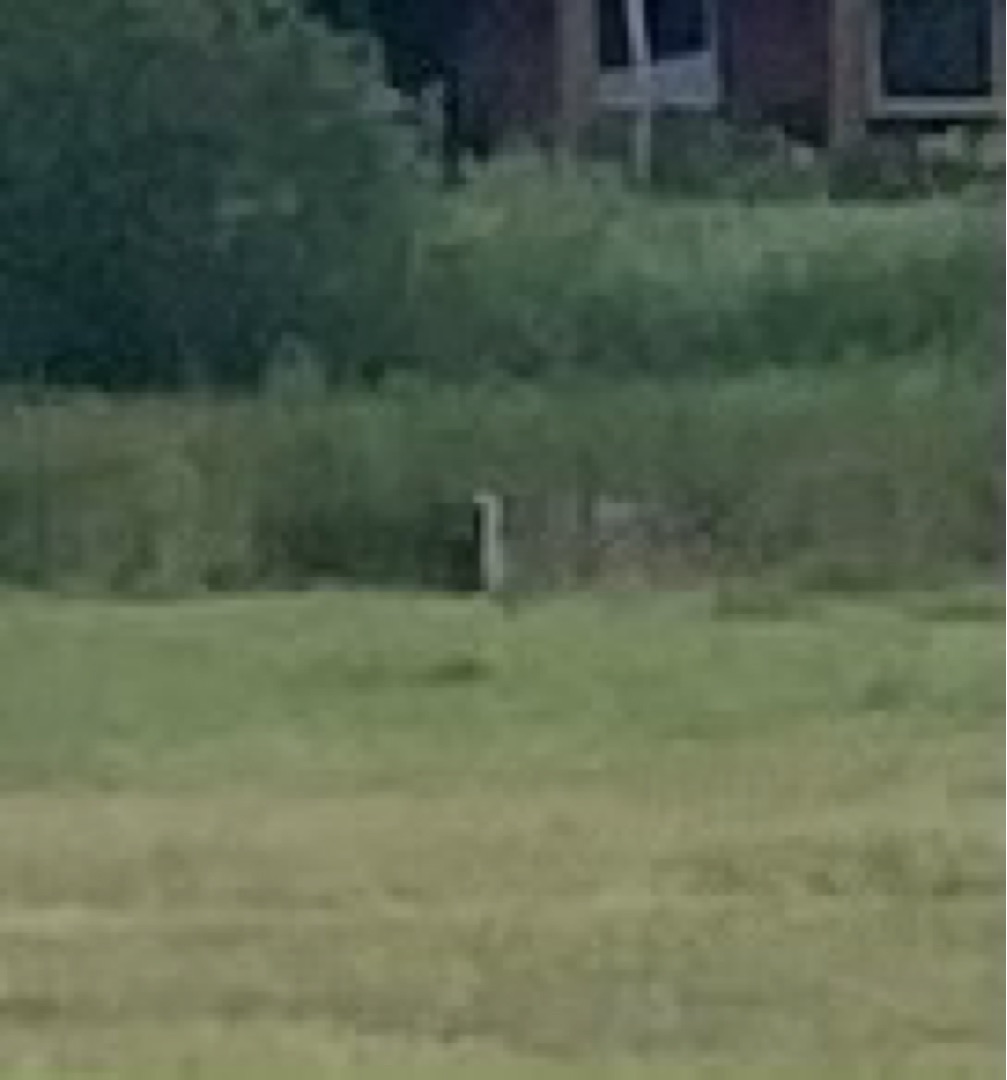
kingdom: Animalia
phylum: Chordata
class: Aves
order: Pelecaniformes
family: Ardeidae
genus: Ardea
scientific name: Ardea cinerea
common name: Fiskehejre
